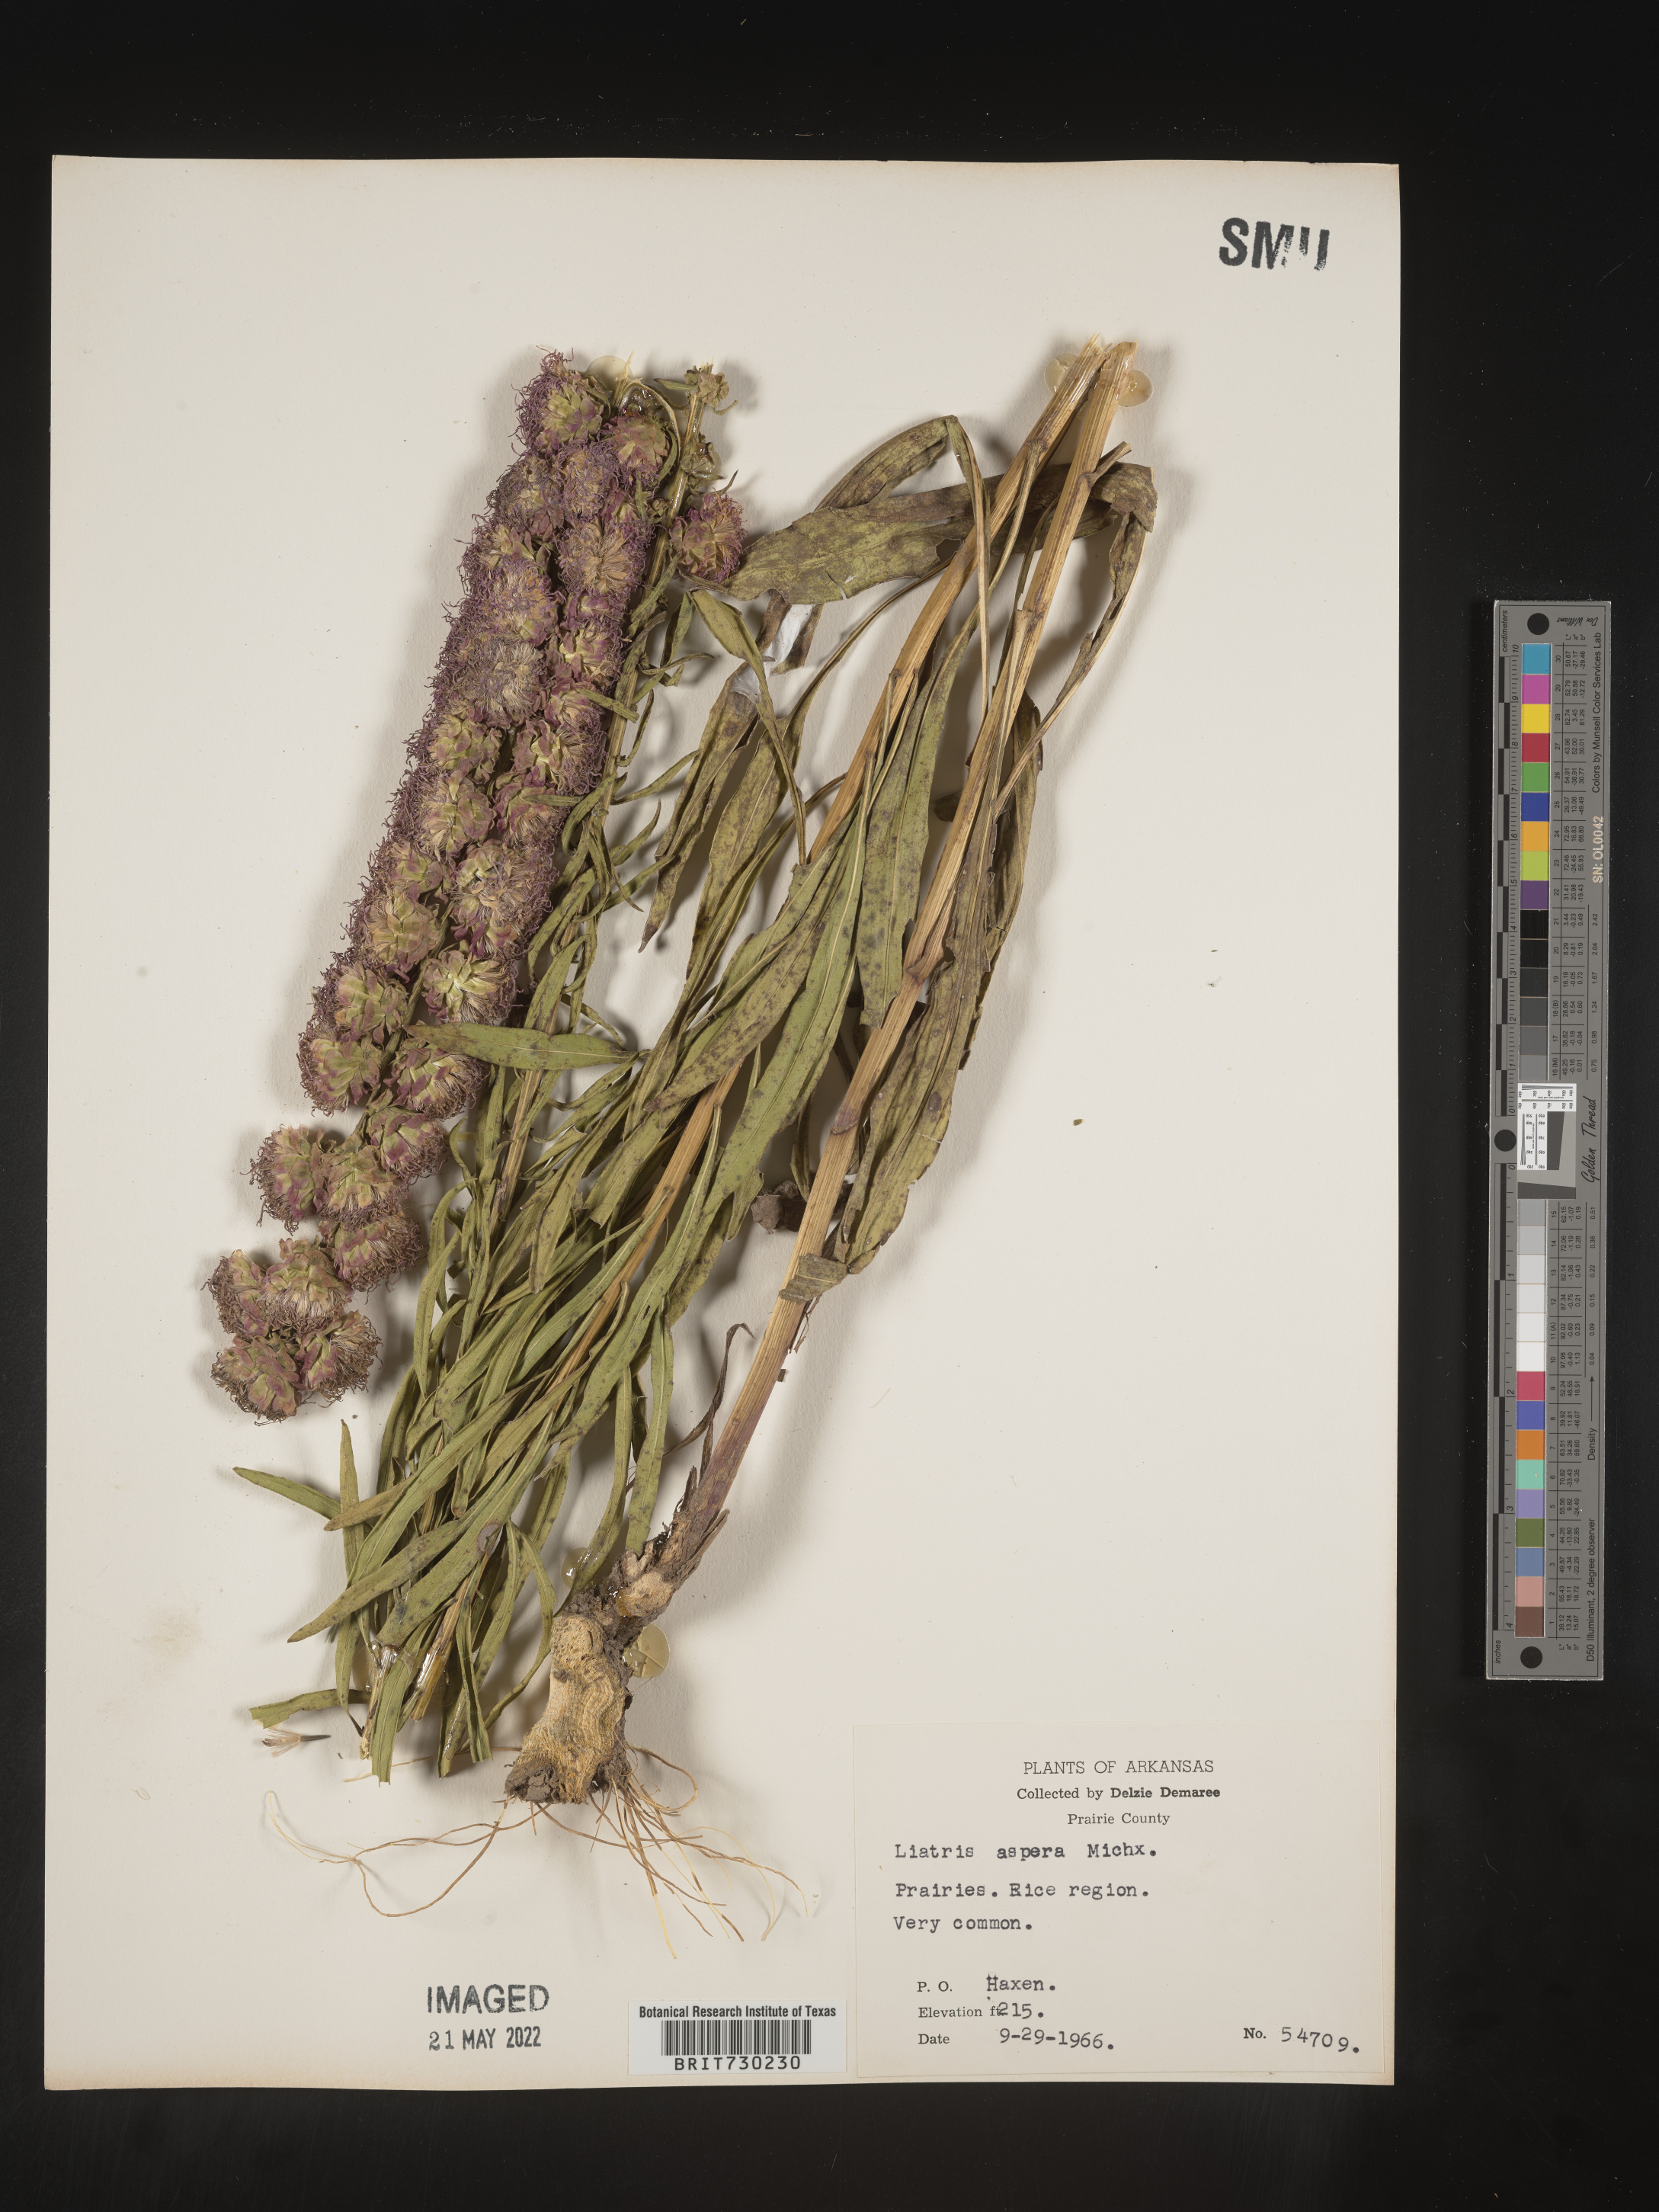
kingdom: Plantae
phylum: Tracheophyta
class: Magnoliopsida
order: Asterales
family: Asteraceae
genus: Liatris
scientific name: Liatris aspera
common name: Lacerate blazing-star
